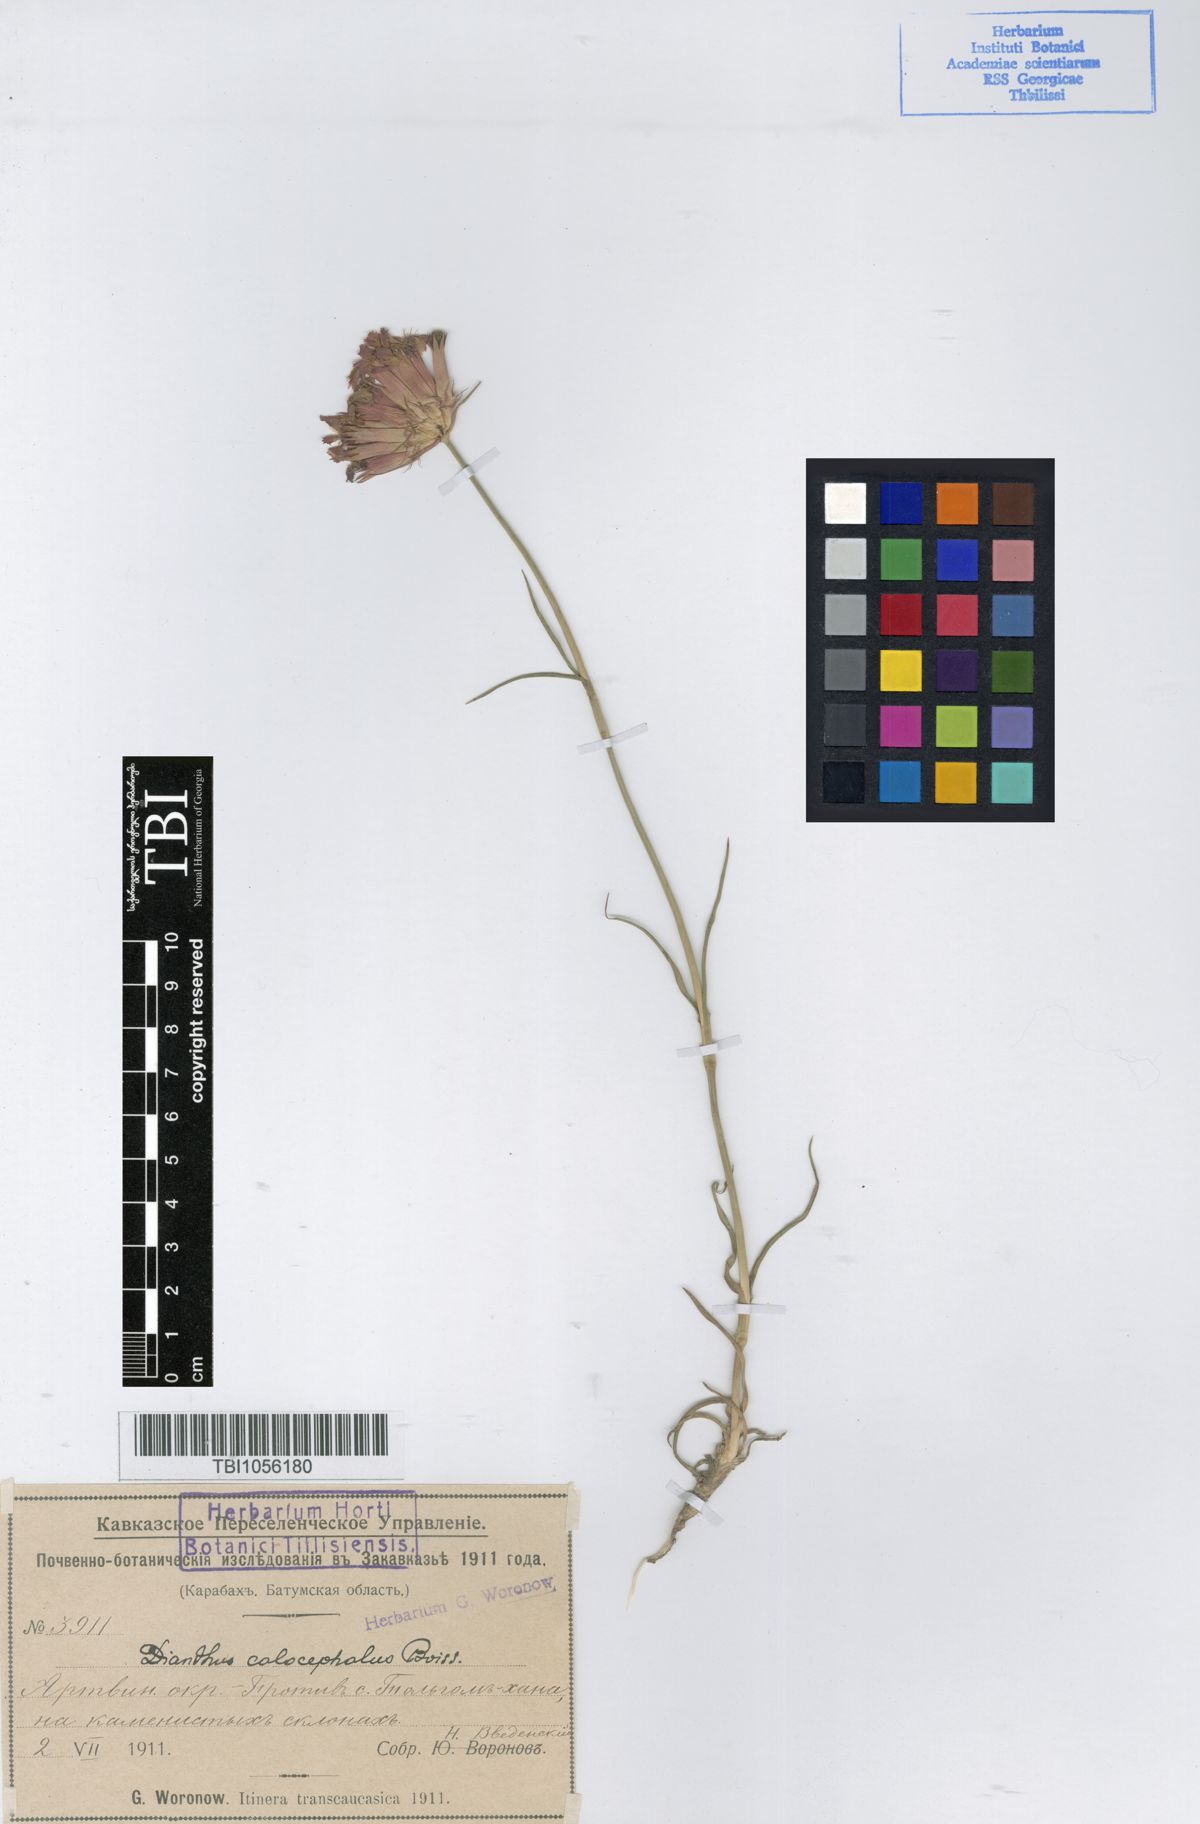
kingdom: Plantae
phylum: Tracheophyta
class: Magnoliopsida
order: Caryophyllales
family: Caryophyllaceae
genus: Dianthus
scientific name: Dianthus cruentus
